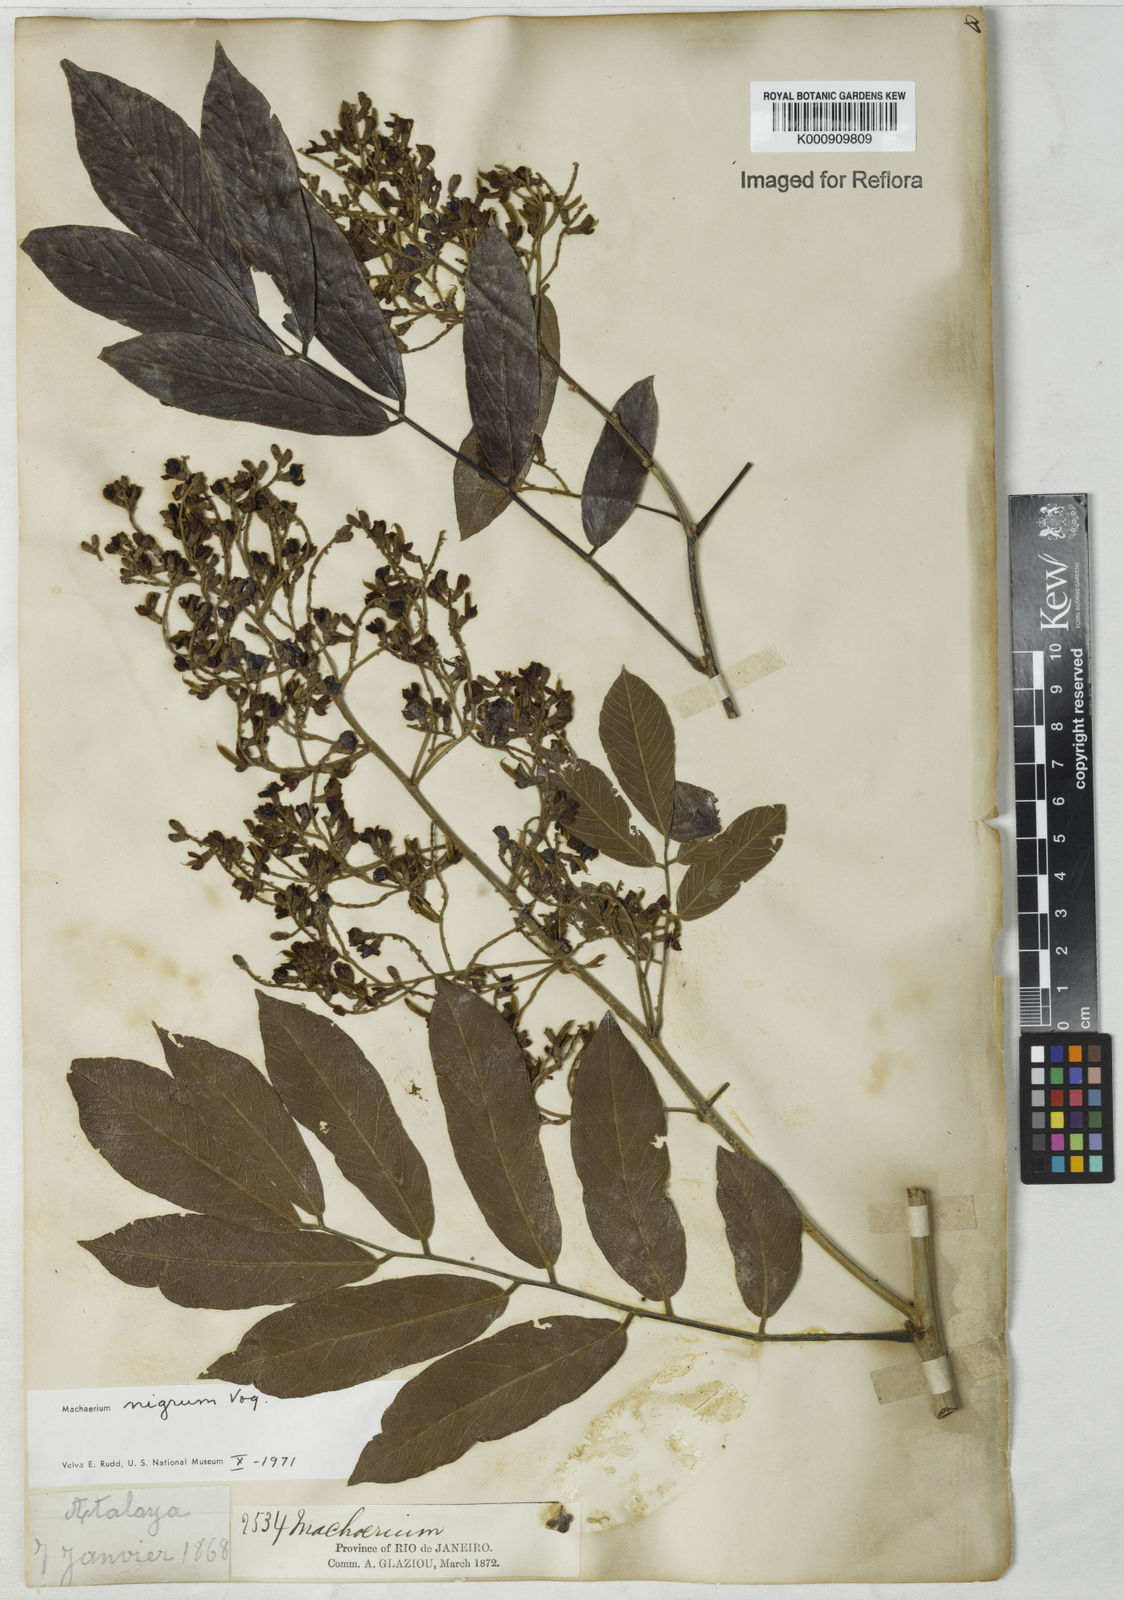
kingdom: Plantae
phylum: Tracheophyta
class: Magnoliopsida
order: Fabales
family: Fabaceae
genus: Machaerium
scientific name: Machaerium nigrum
